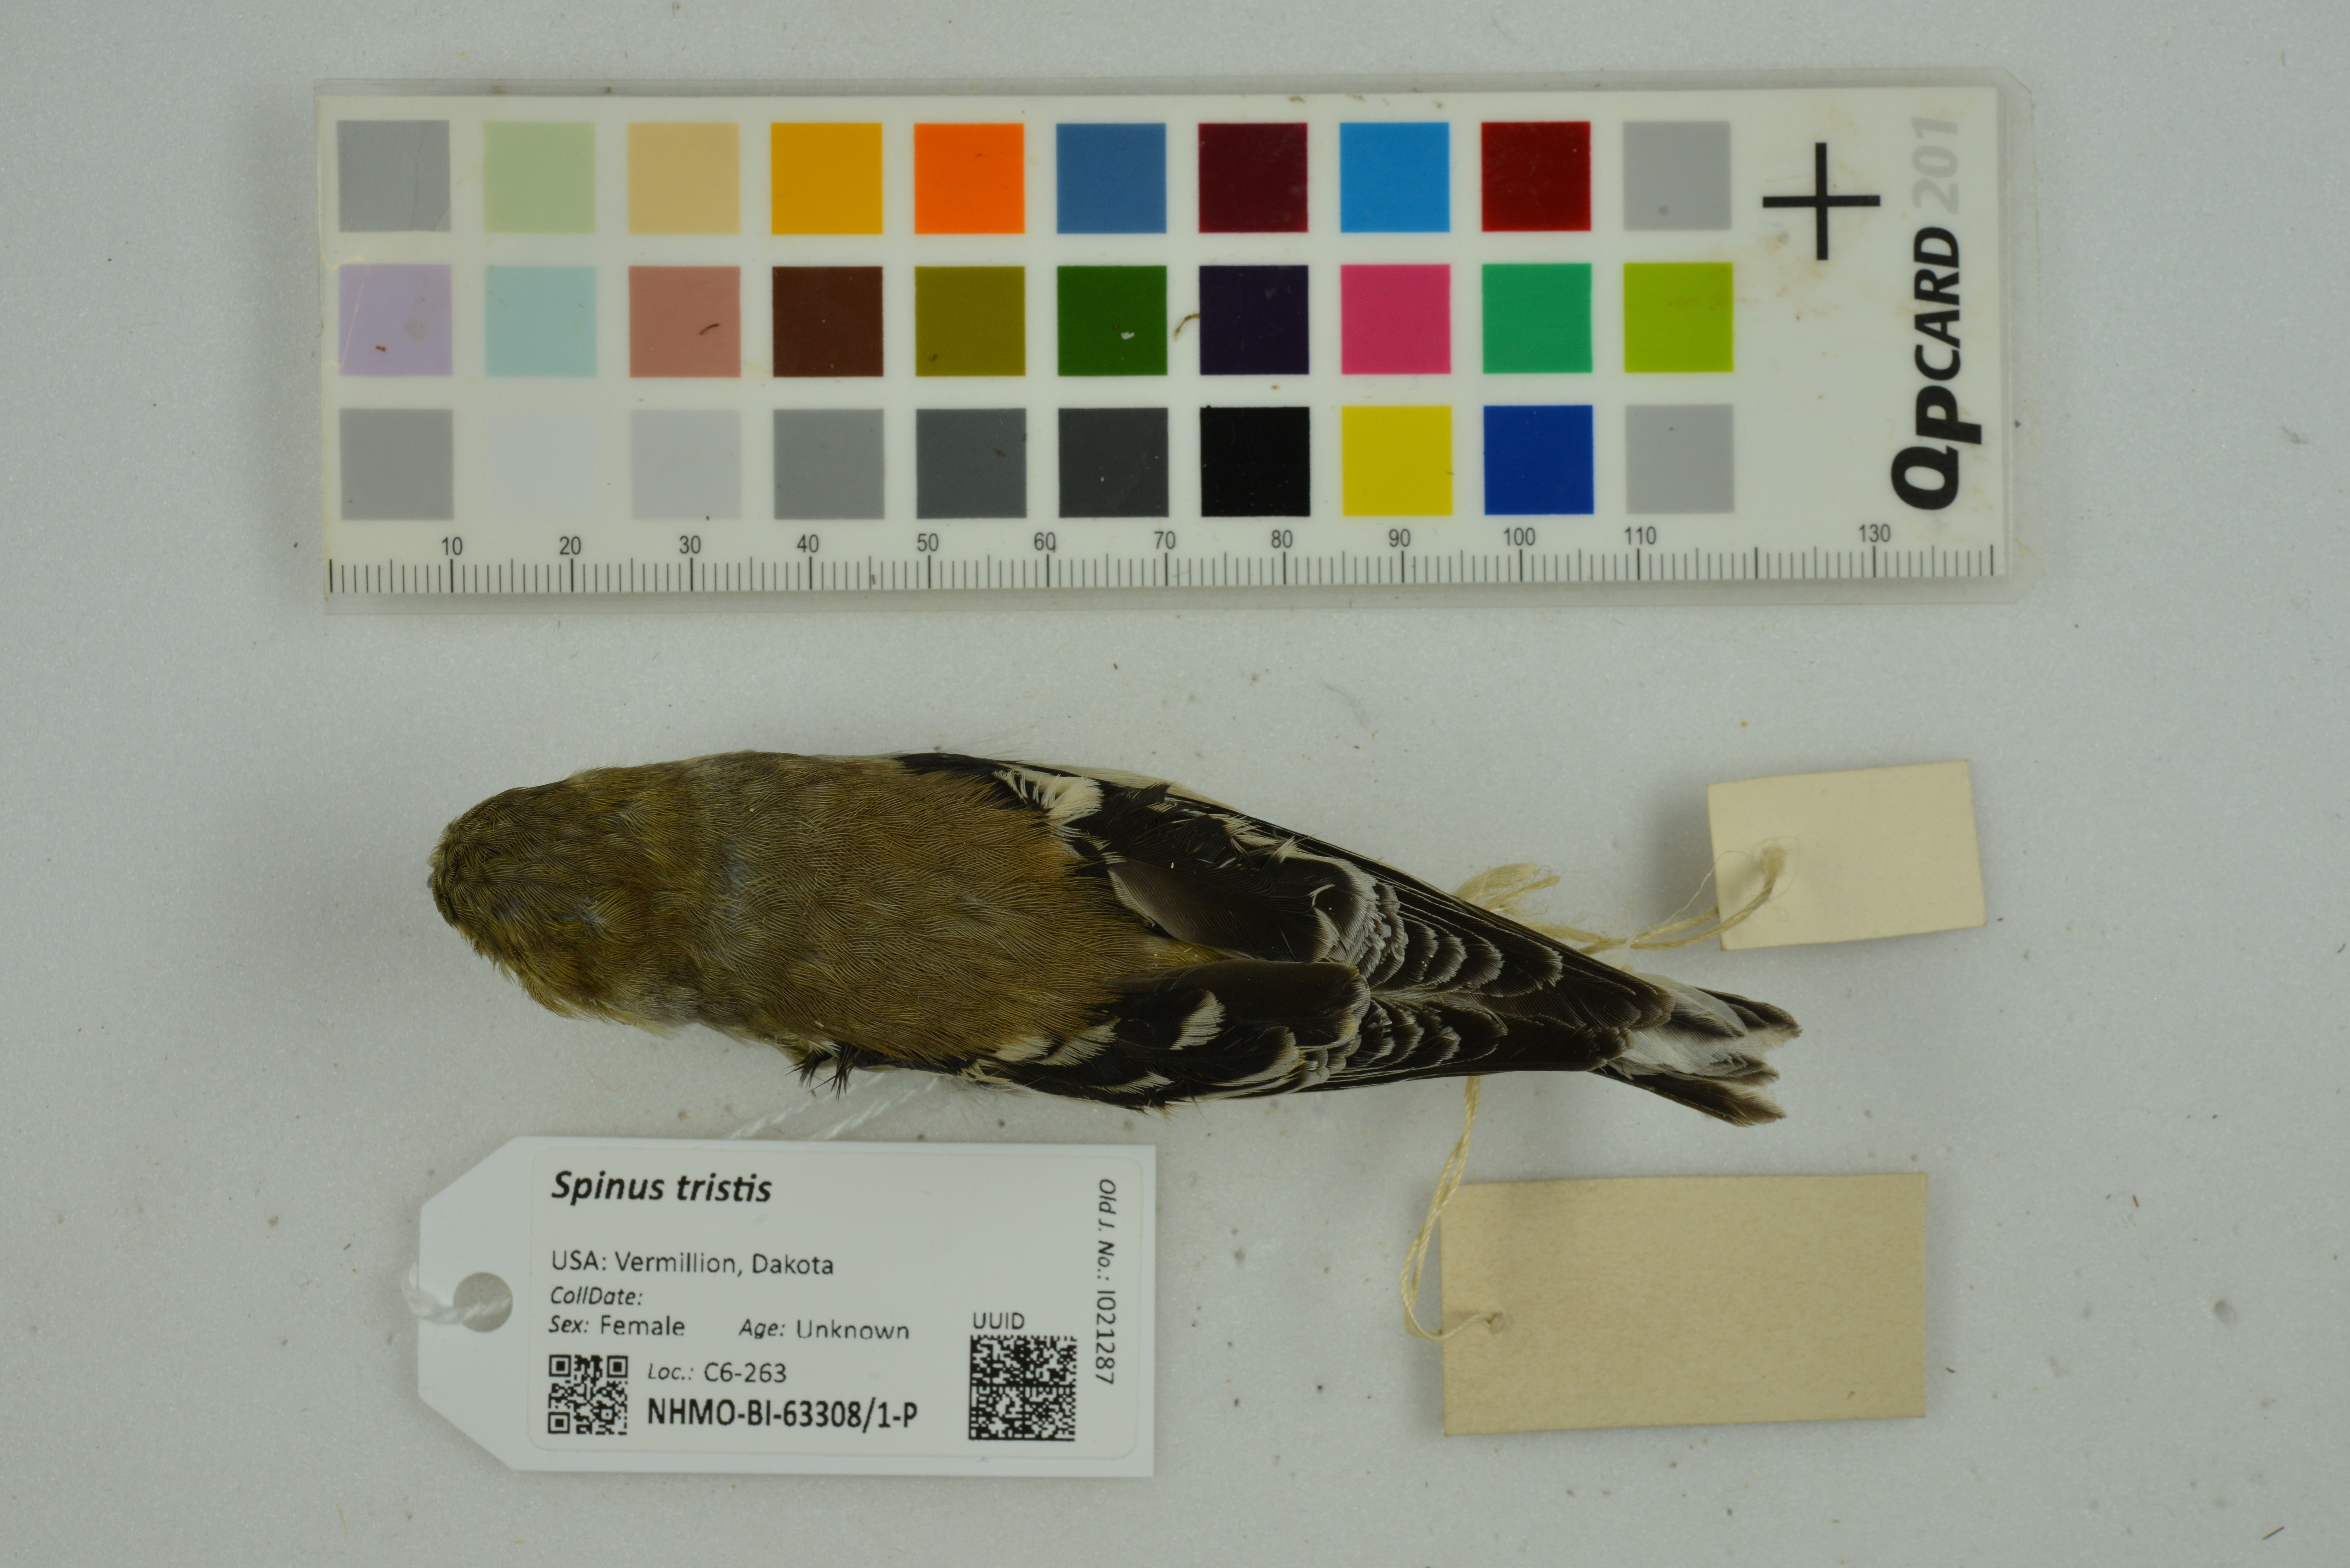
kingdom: Animalia
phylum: Chordata
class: Aves
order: Passeriformes
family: Fringillidae
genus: Spinus
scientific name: Spinus tristis
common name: American goldfinch
